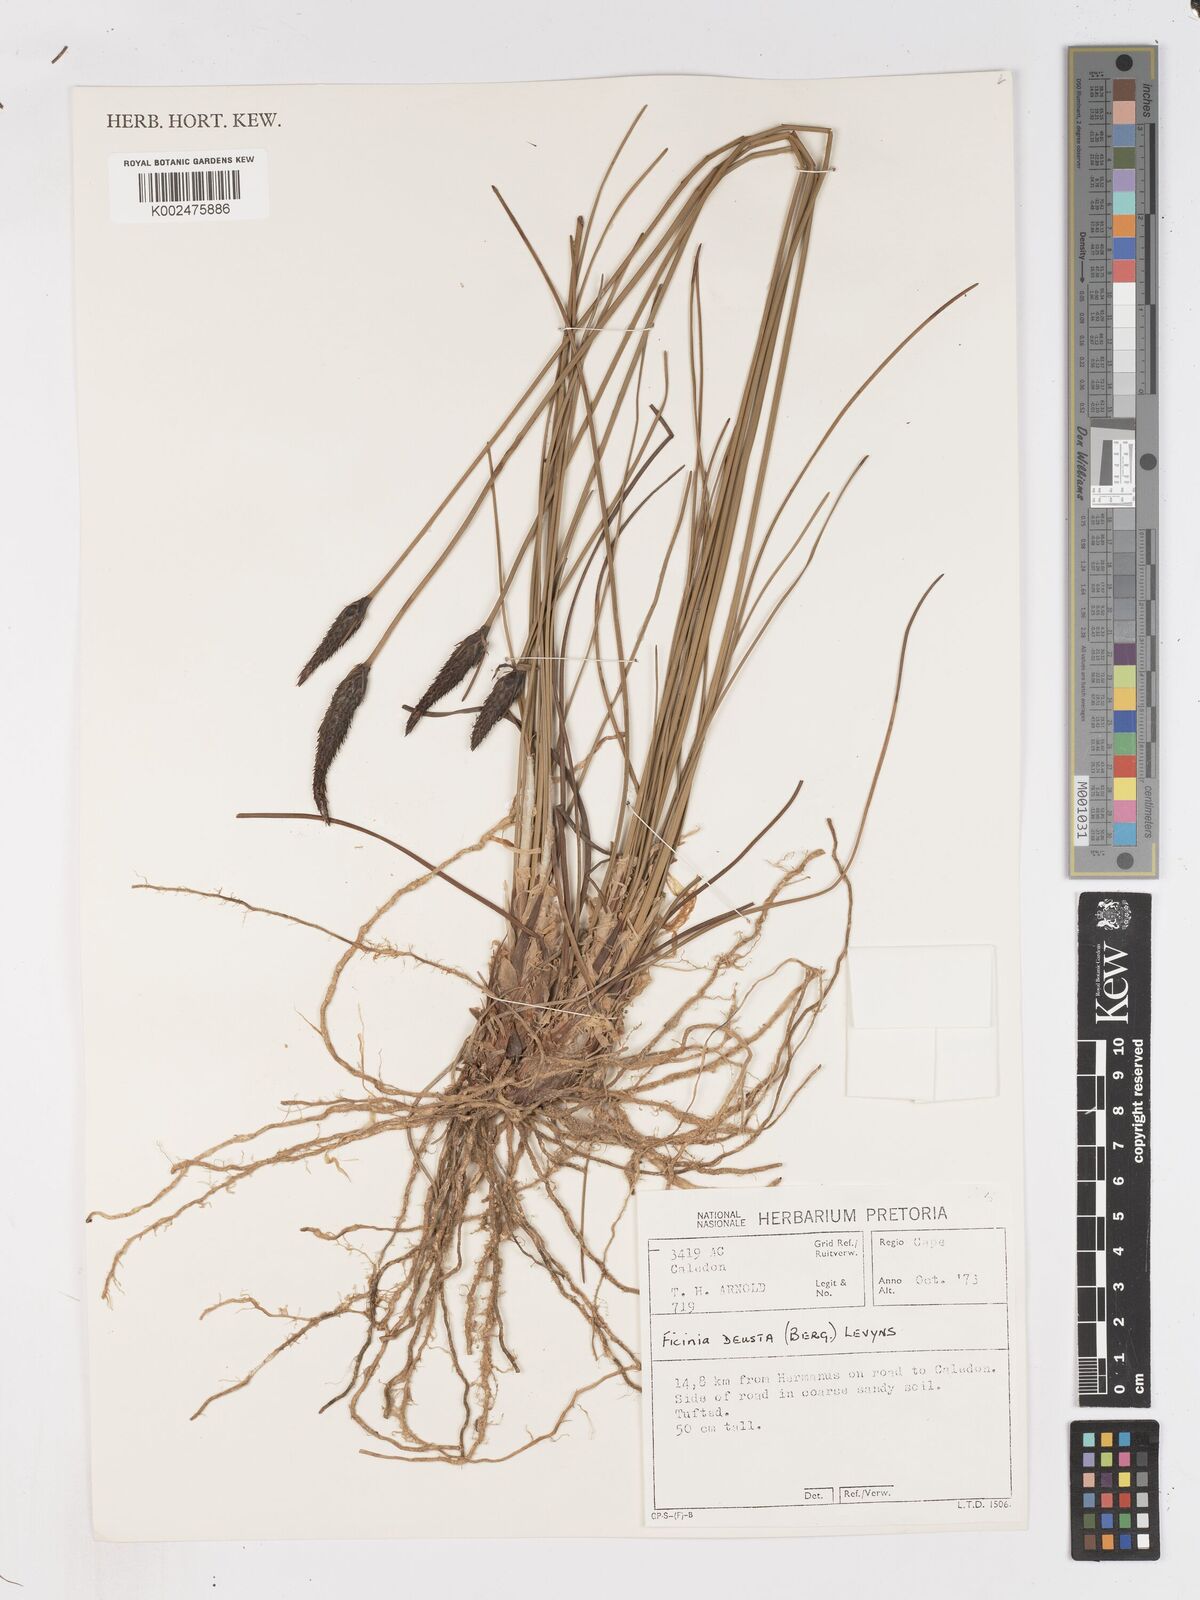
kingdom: Plantae
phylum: Tracheophyta
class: Liliopsida
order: Poales
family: Cyperaceae
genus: Ficinia
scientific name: Ficinia deusta
